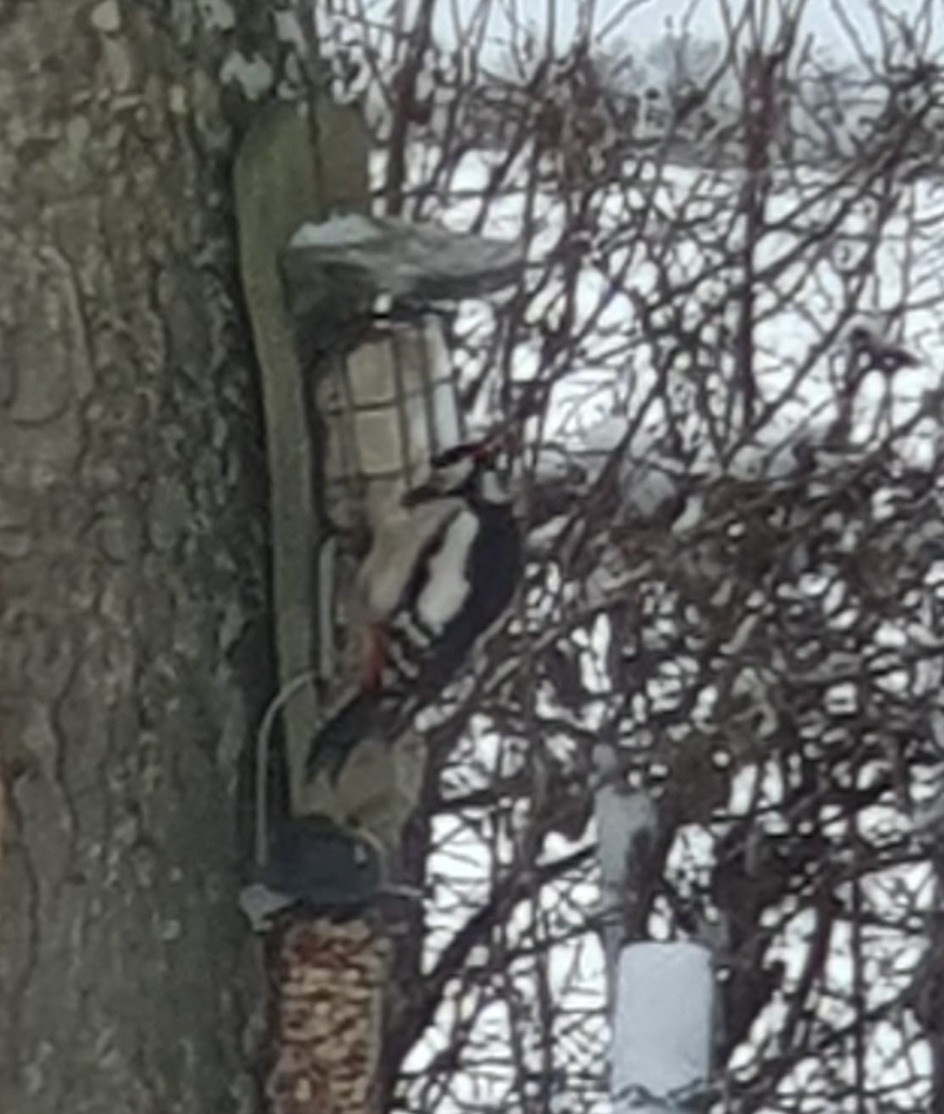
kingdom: Animalia
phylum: Chordata
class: Aves
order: Piciformes
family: Picidae
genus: Dendrocopos
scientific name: Dendrocopos major
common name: Stor flagspætte
